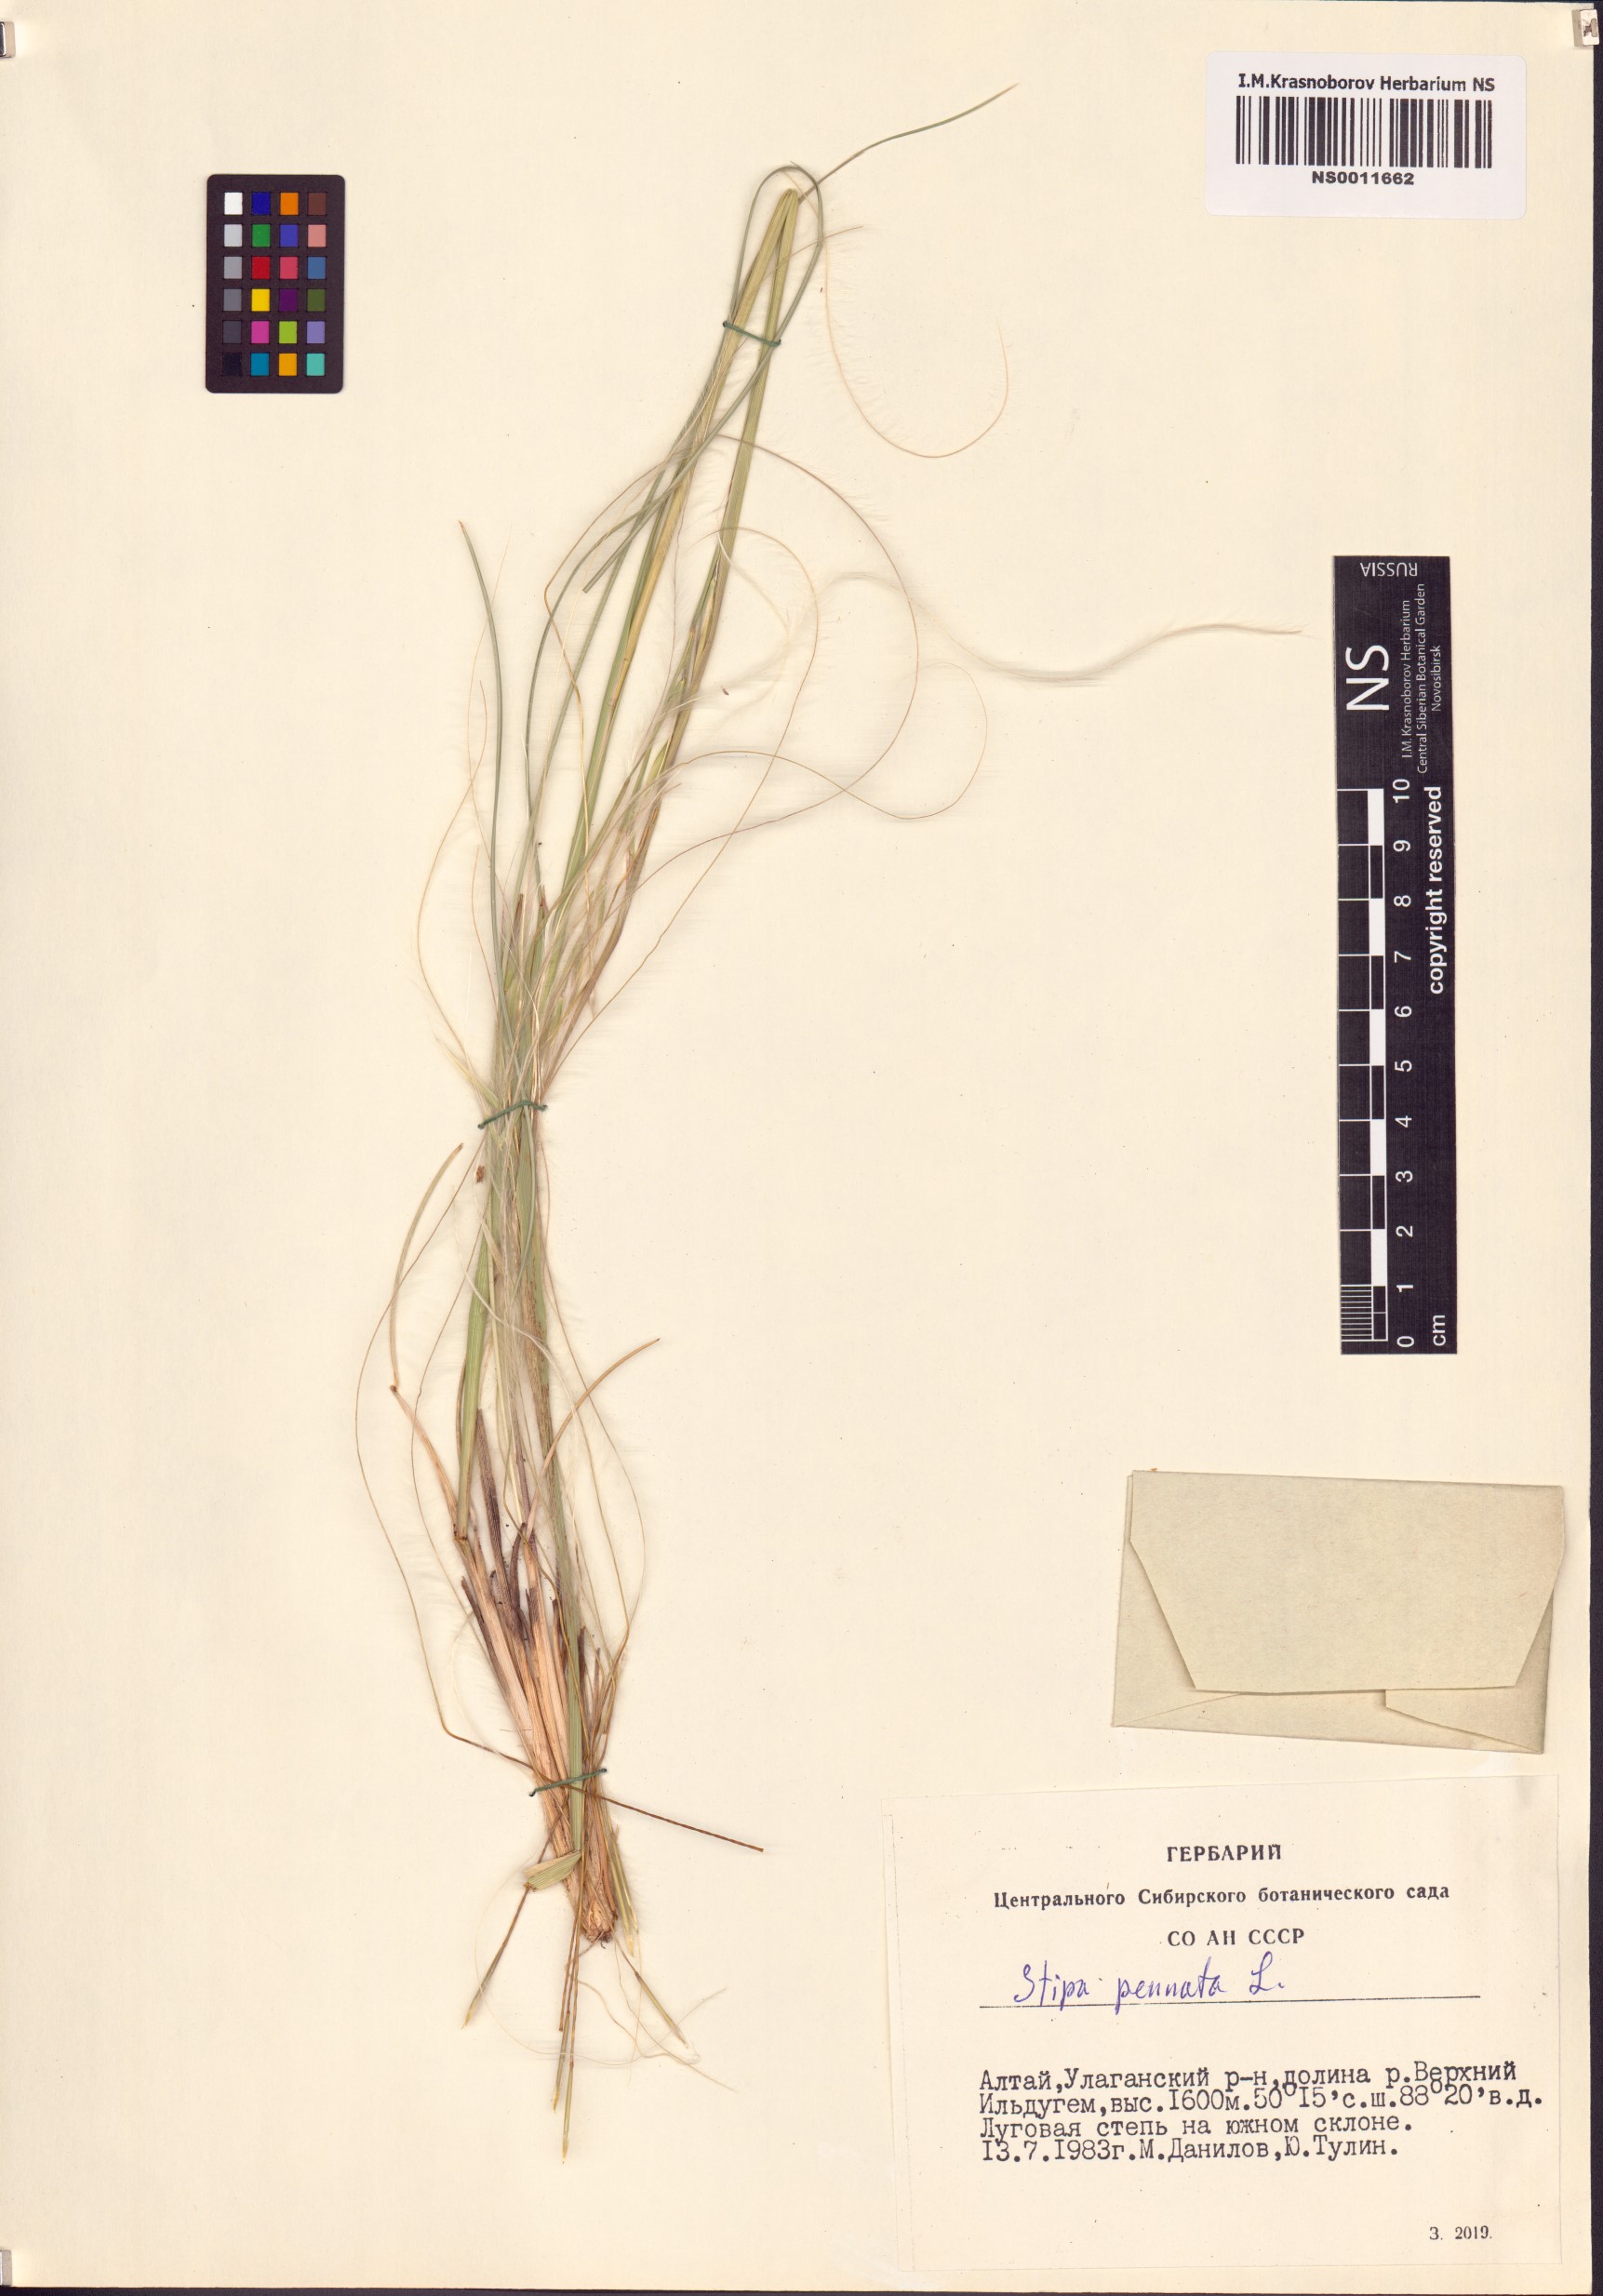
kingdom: Plantae
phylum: Tracheophyta
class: Liliopsida
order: Poales
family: Poaceae
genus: Stipa
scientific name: Stipa pennata
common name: European feather grass
